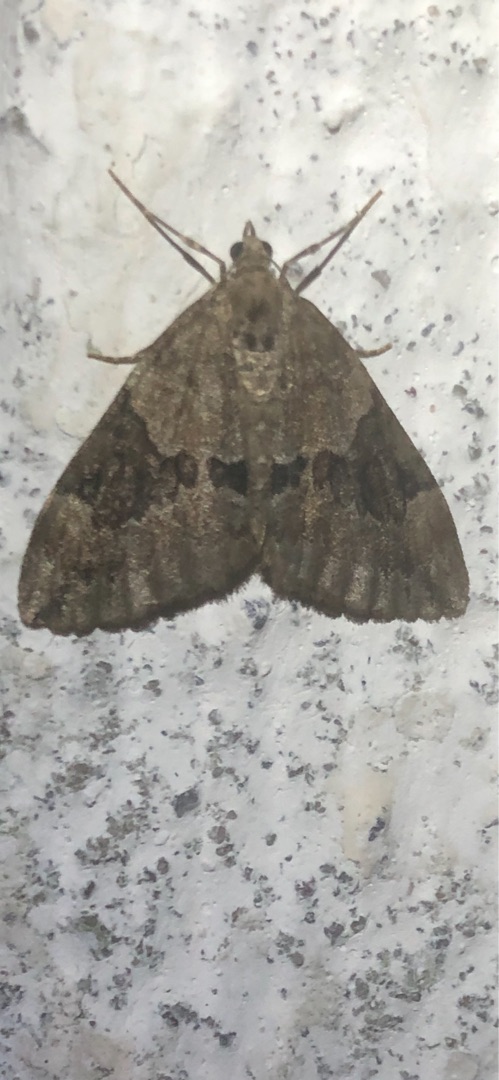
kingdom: Animalia
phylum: Arthropoda
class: Insecta
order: Lepidoptera
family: Geometridae
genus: Thera
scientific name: Thera obeliscata
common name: Grå fyrremåler
